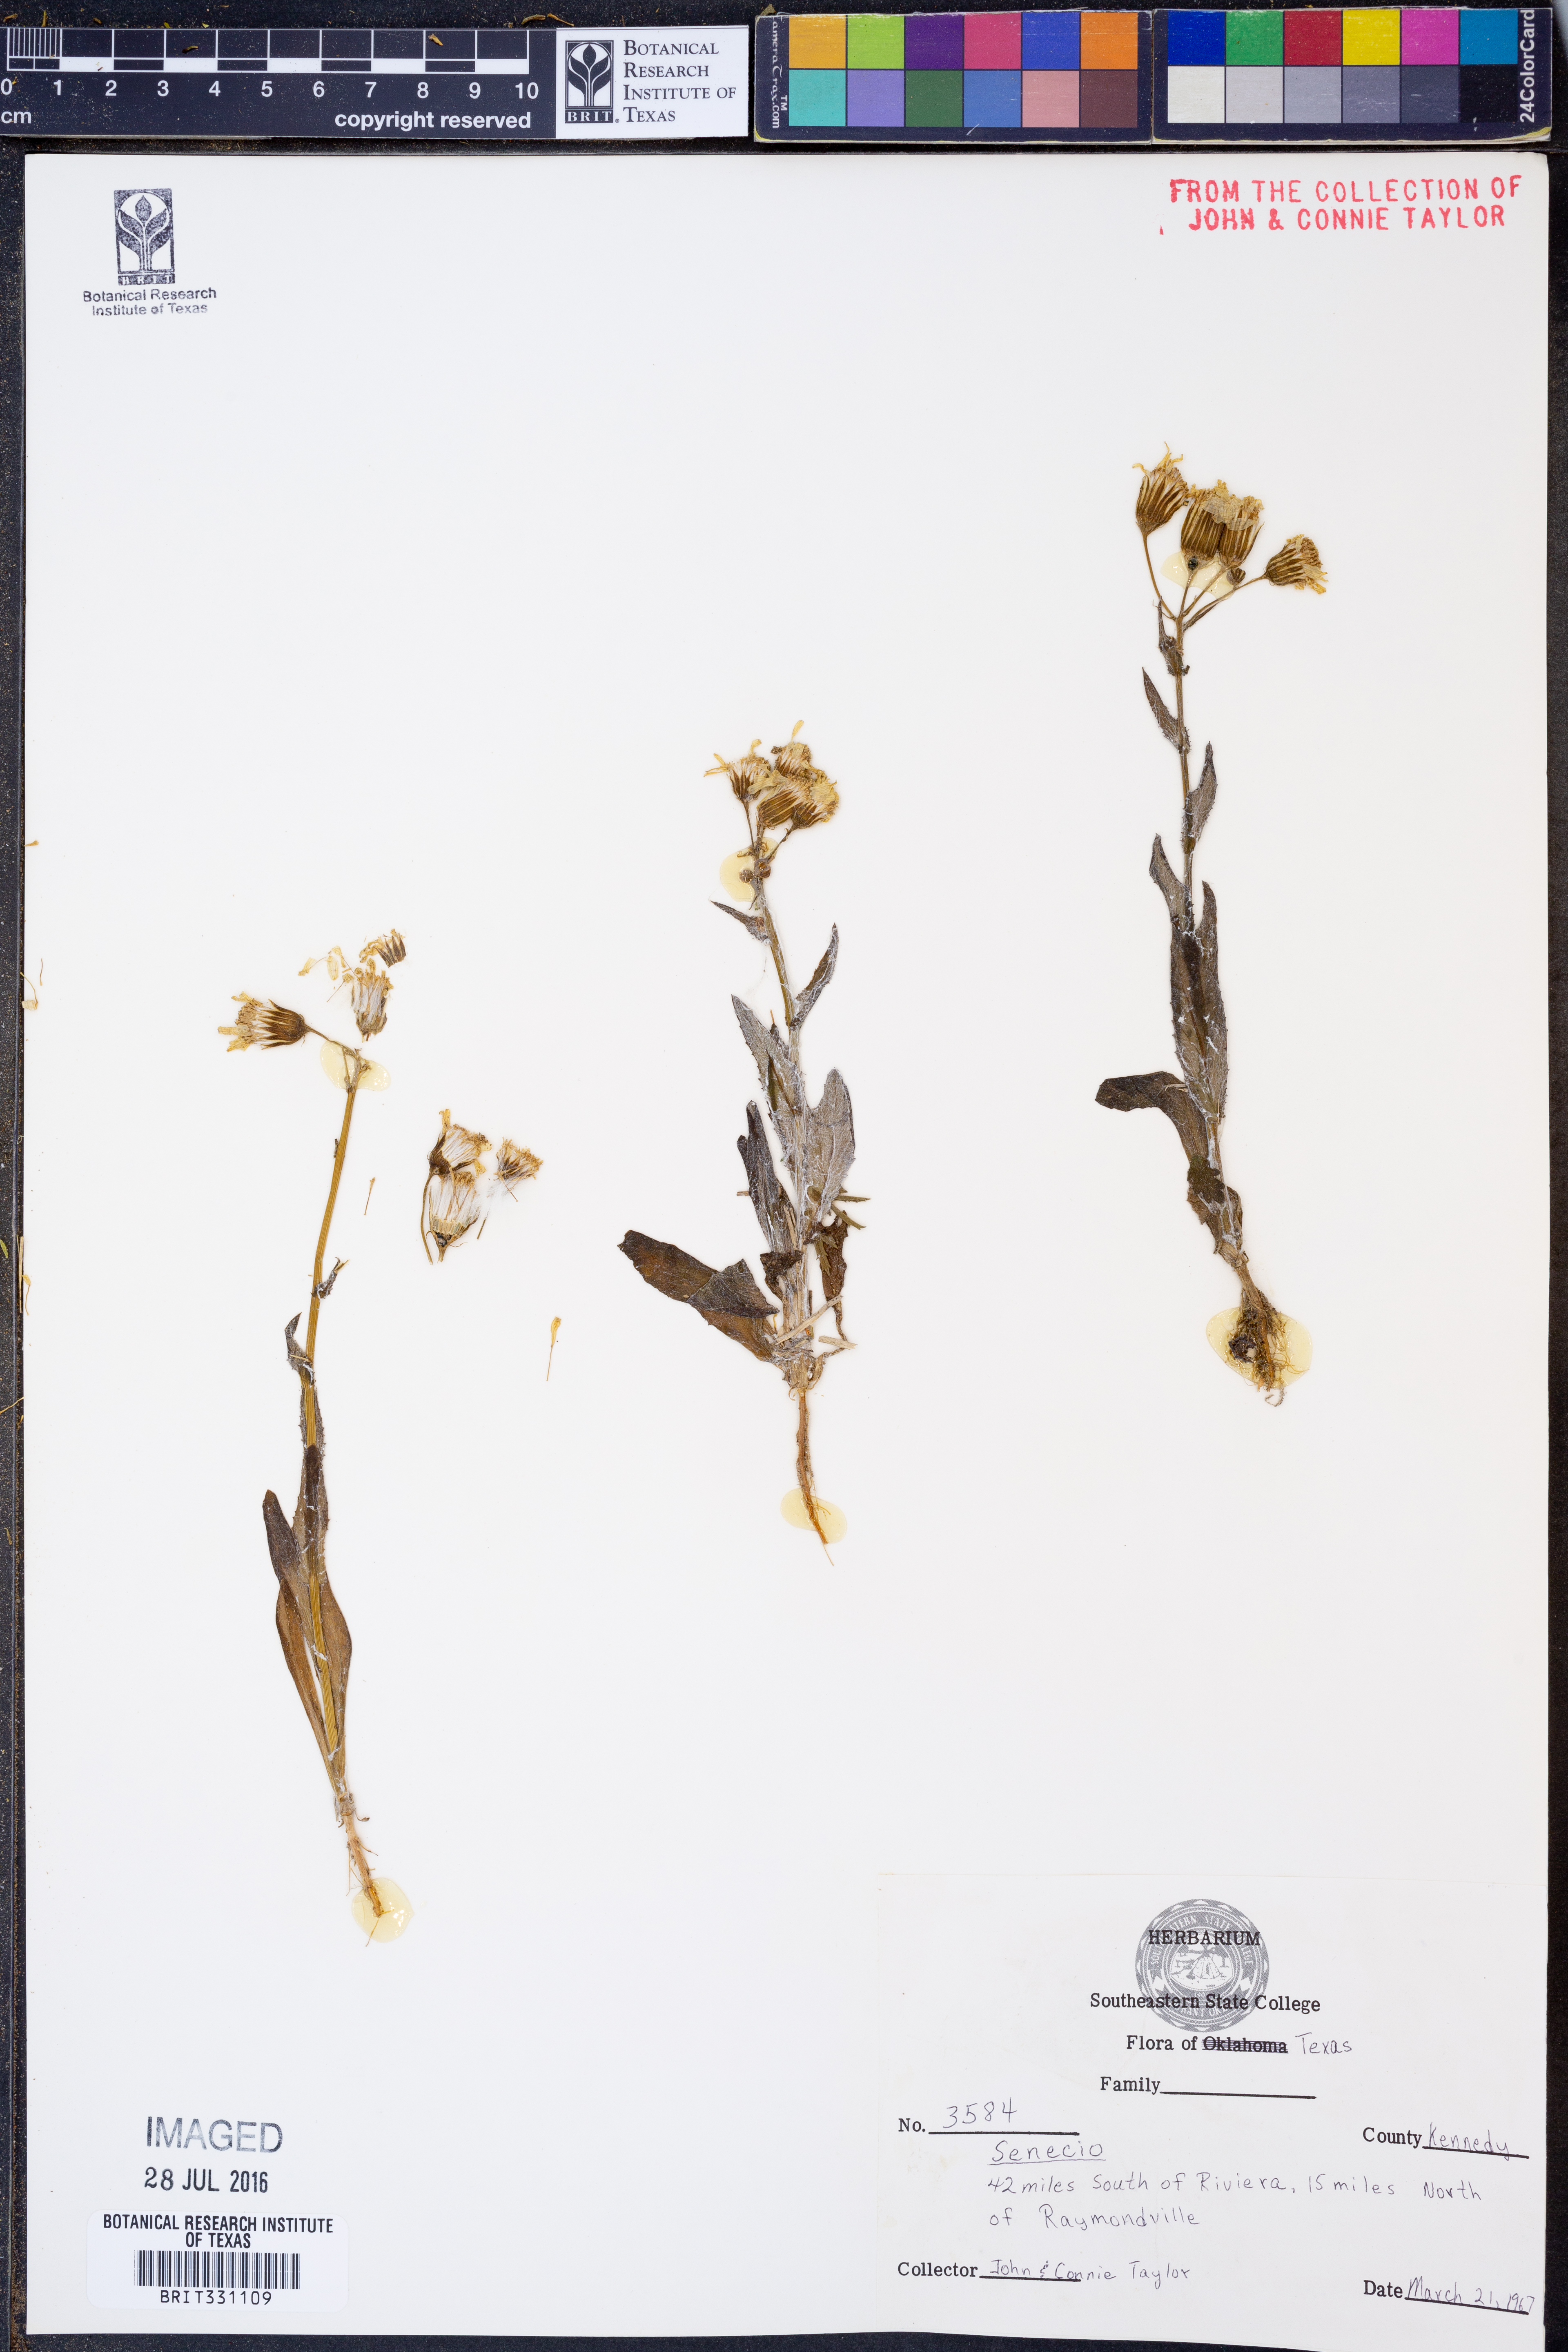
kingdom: Plantae
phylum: Tracheophyta
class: Magnoliopsida
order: Asterales
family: Asteraceae
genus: Senecio
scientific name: Senecio ampullaceus
